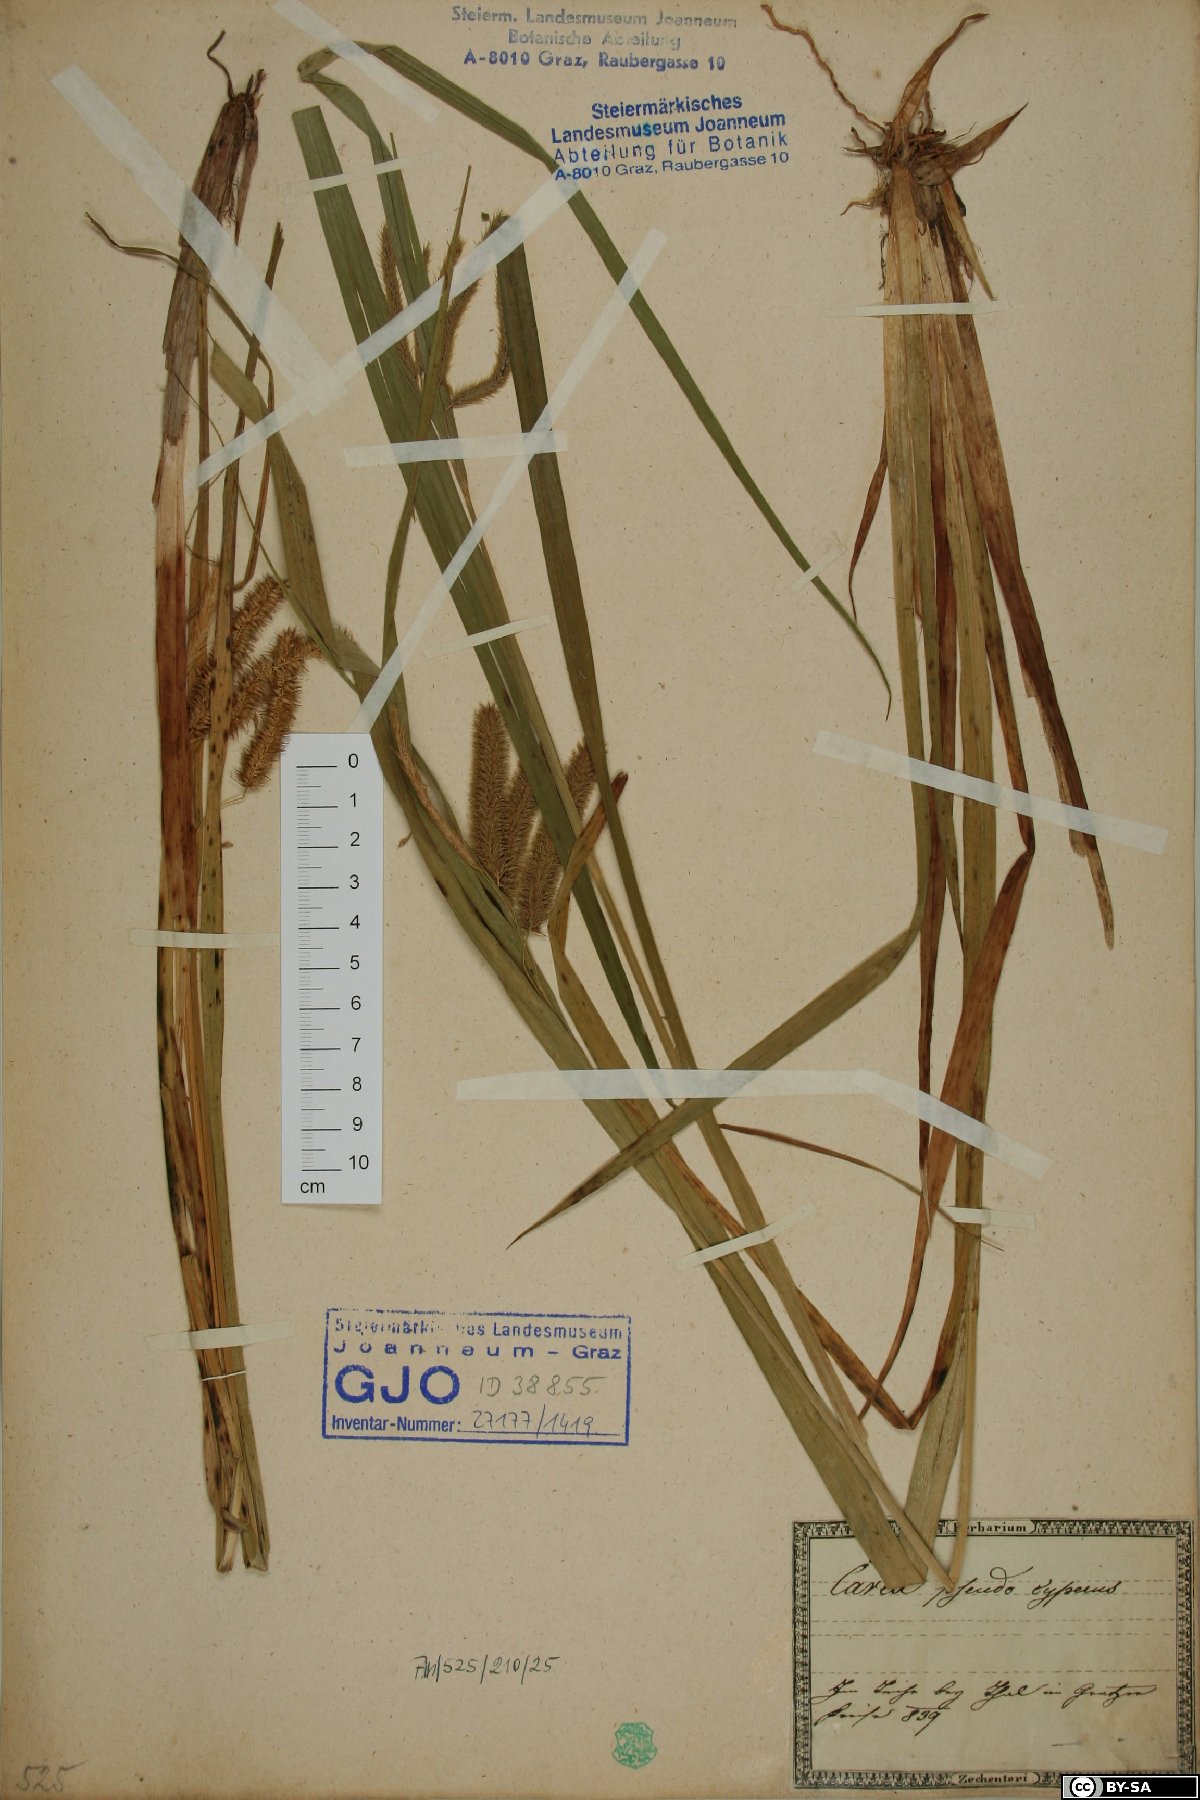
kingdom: Plantae
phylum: Tracheophyta
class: Liliopsida
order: Poales
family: Cyperaceae
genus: Carex
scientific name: Carex pseudocyperus
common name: Cyperus sedge
